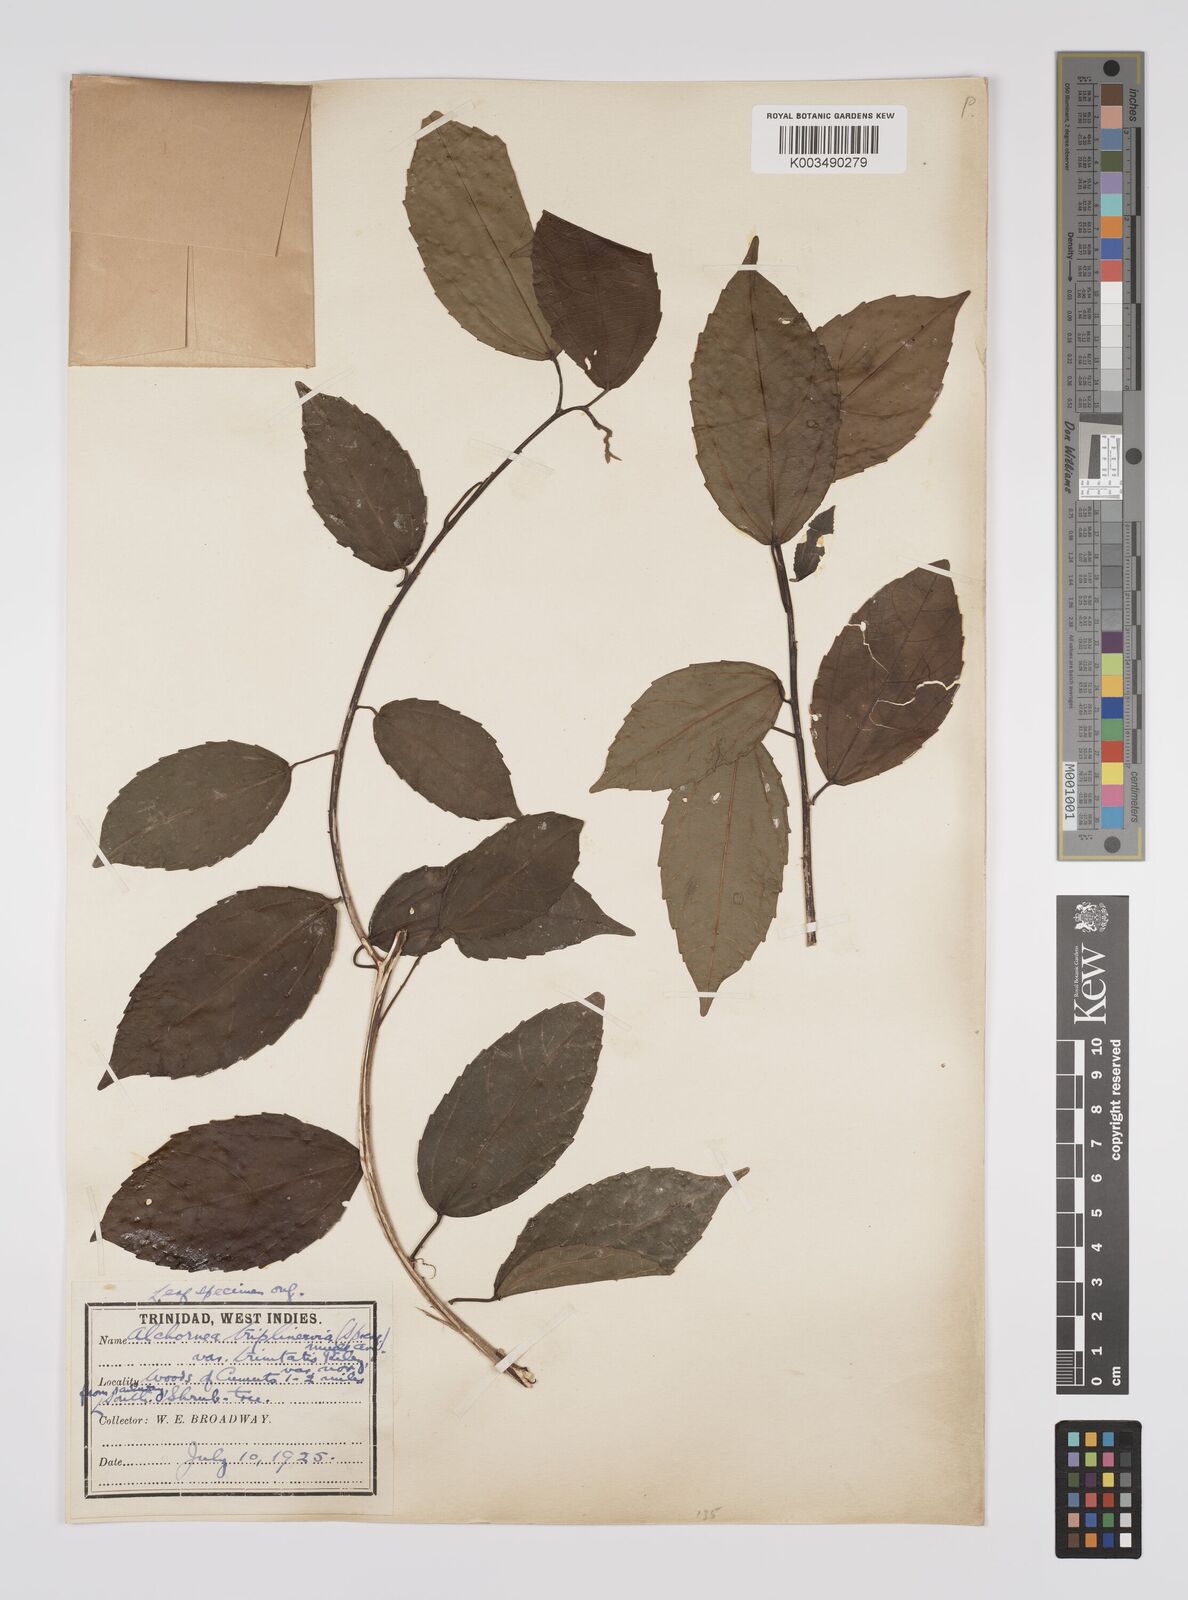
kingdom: Plantae
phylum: Tracheophyta
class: Magnoliopsida
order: Malpighiales
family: Euphorbiaceae
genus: Alchornea
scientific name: Alchornea triplinervia
